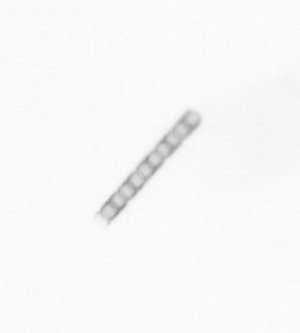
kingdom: Chromista
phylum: Ochrophyta
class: Bacillariophyceae
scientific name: Bacillariophyceae
